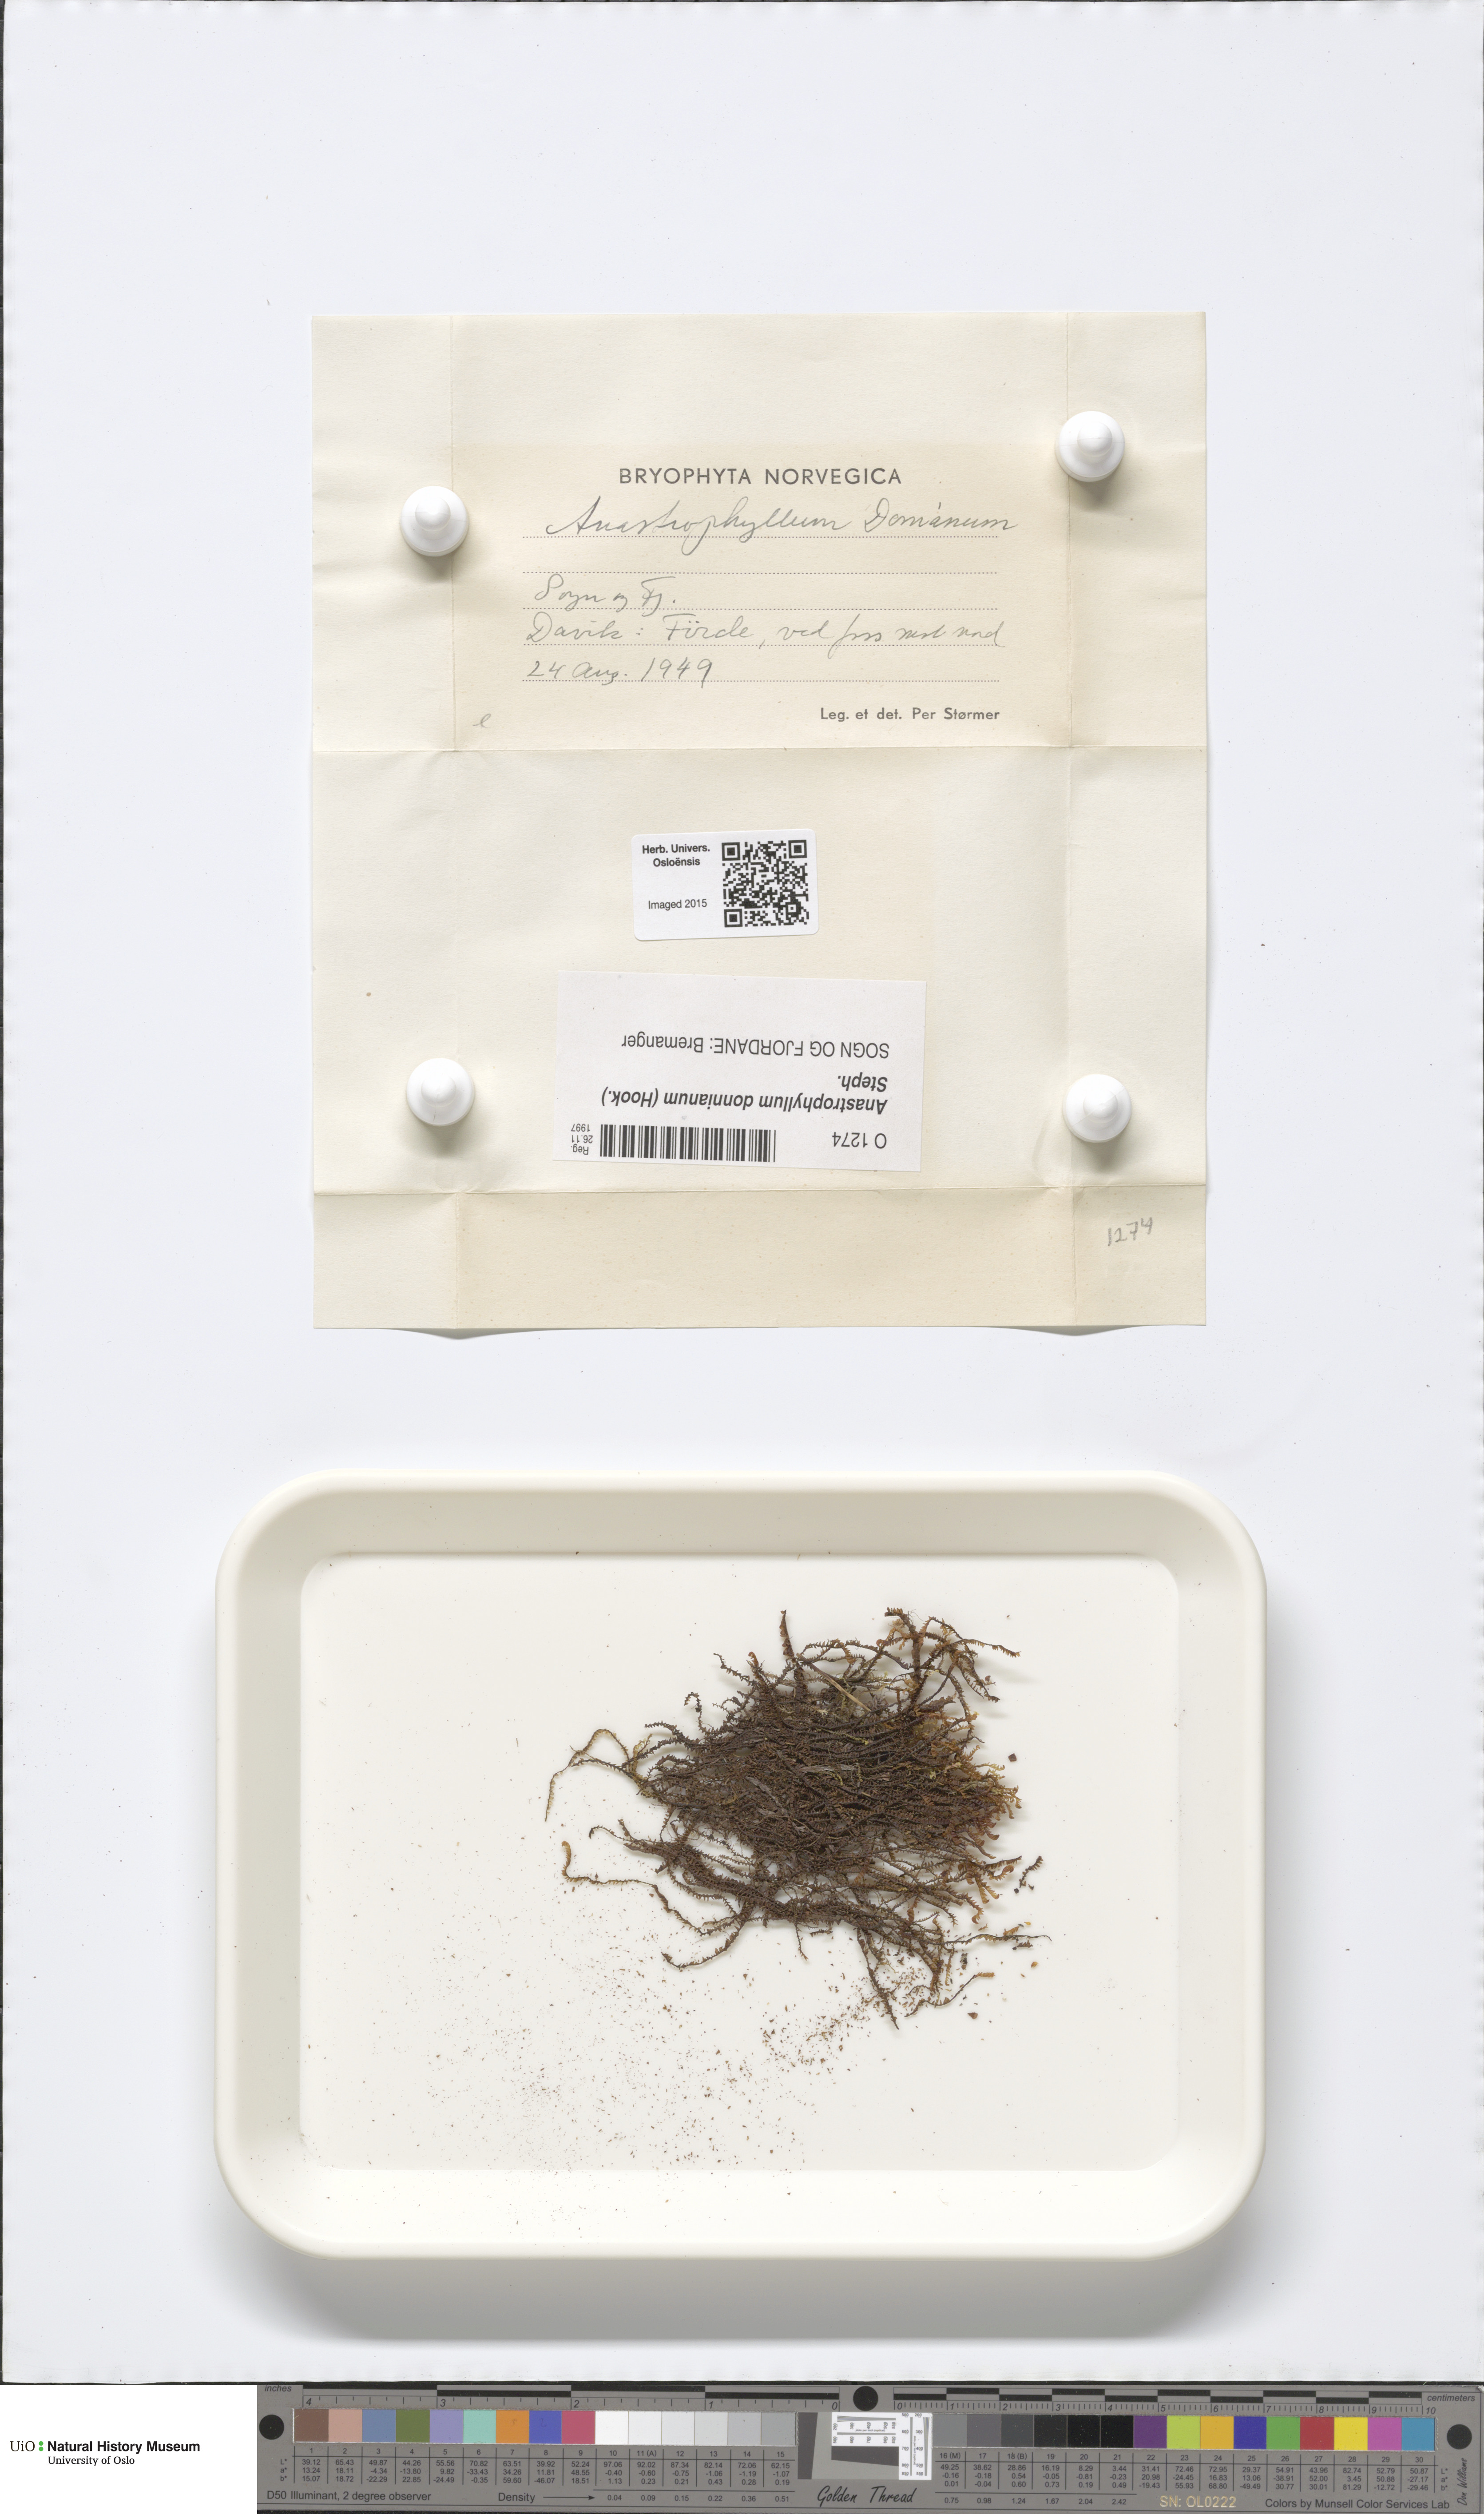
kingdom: Plantae
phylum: Marchantiophyta
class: Jungermanniopsida
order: Jungermanniales
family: Anastrophyllaceae
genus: Anastrophyllum
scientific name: Anastrophyllum donnianum
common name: Donn's notchwort
